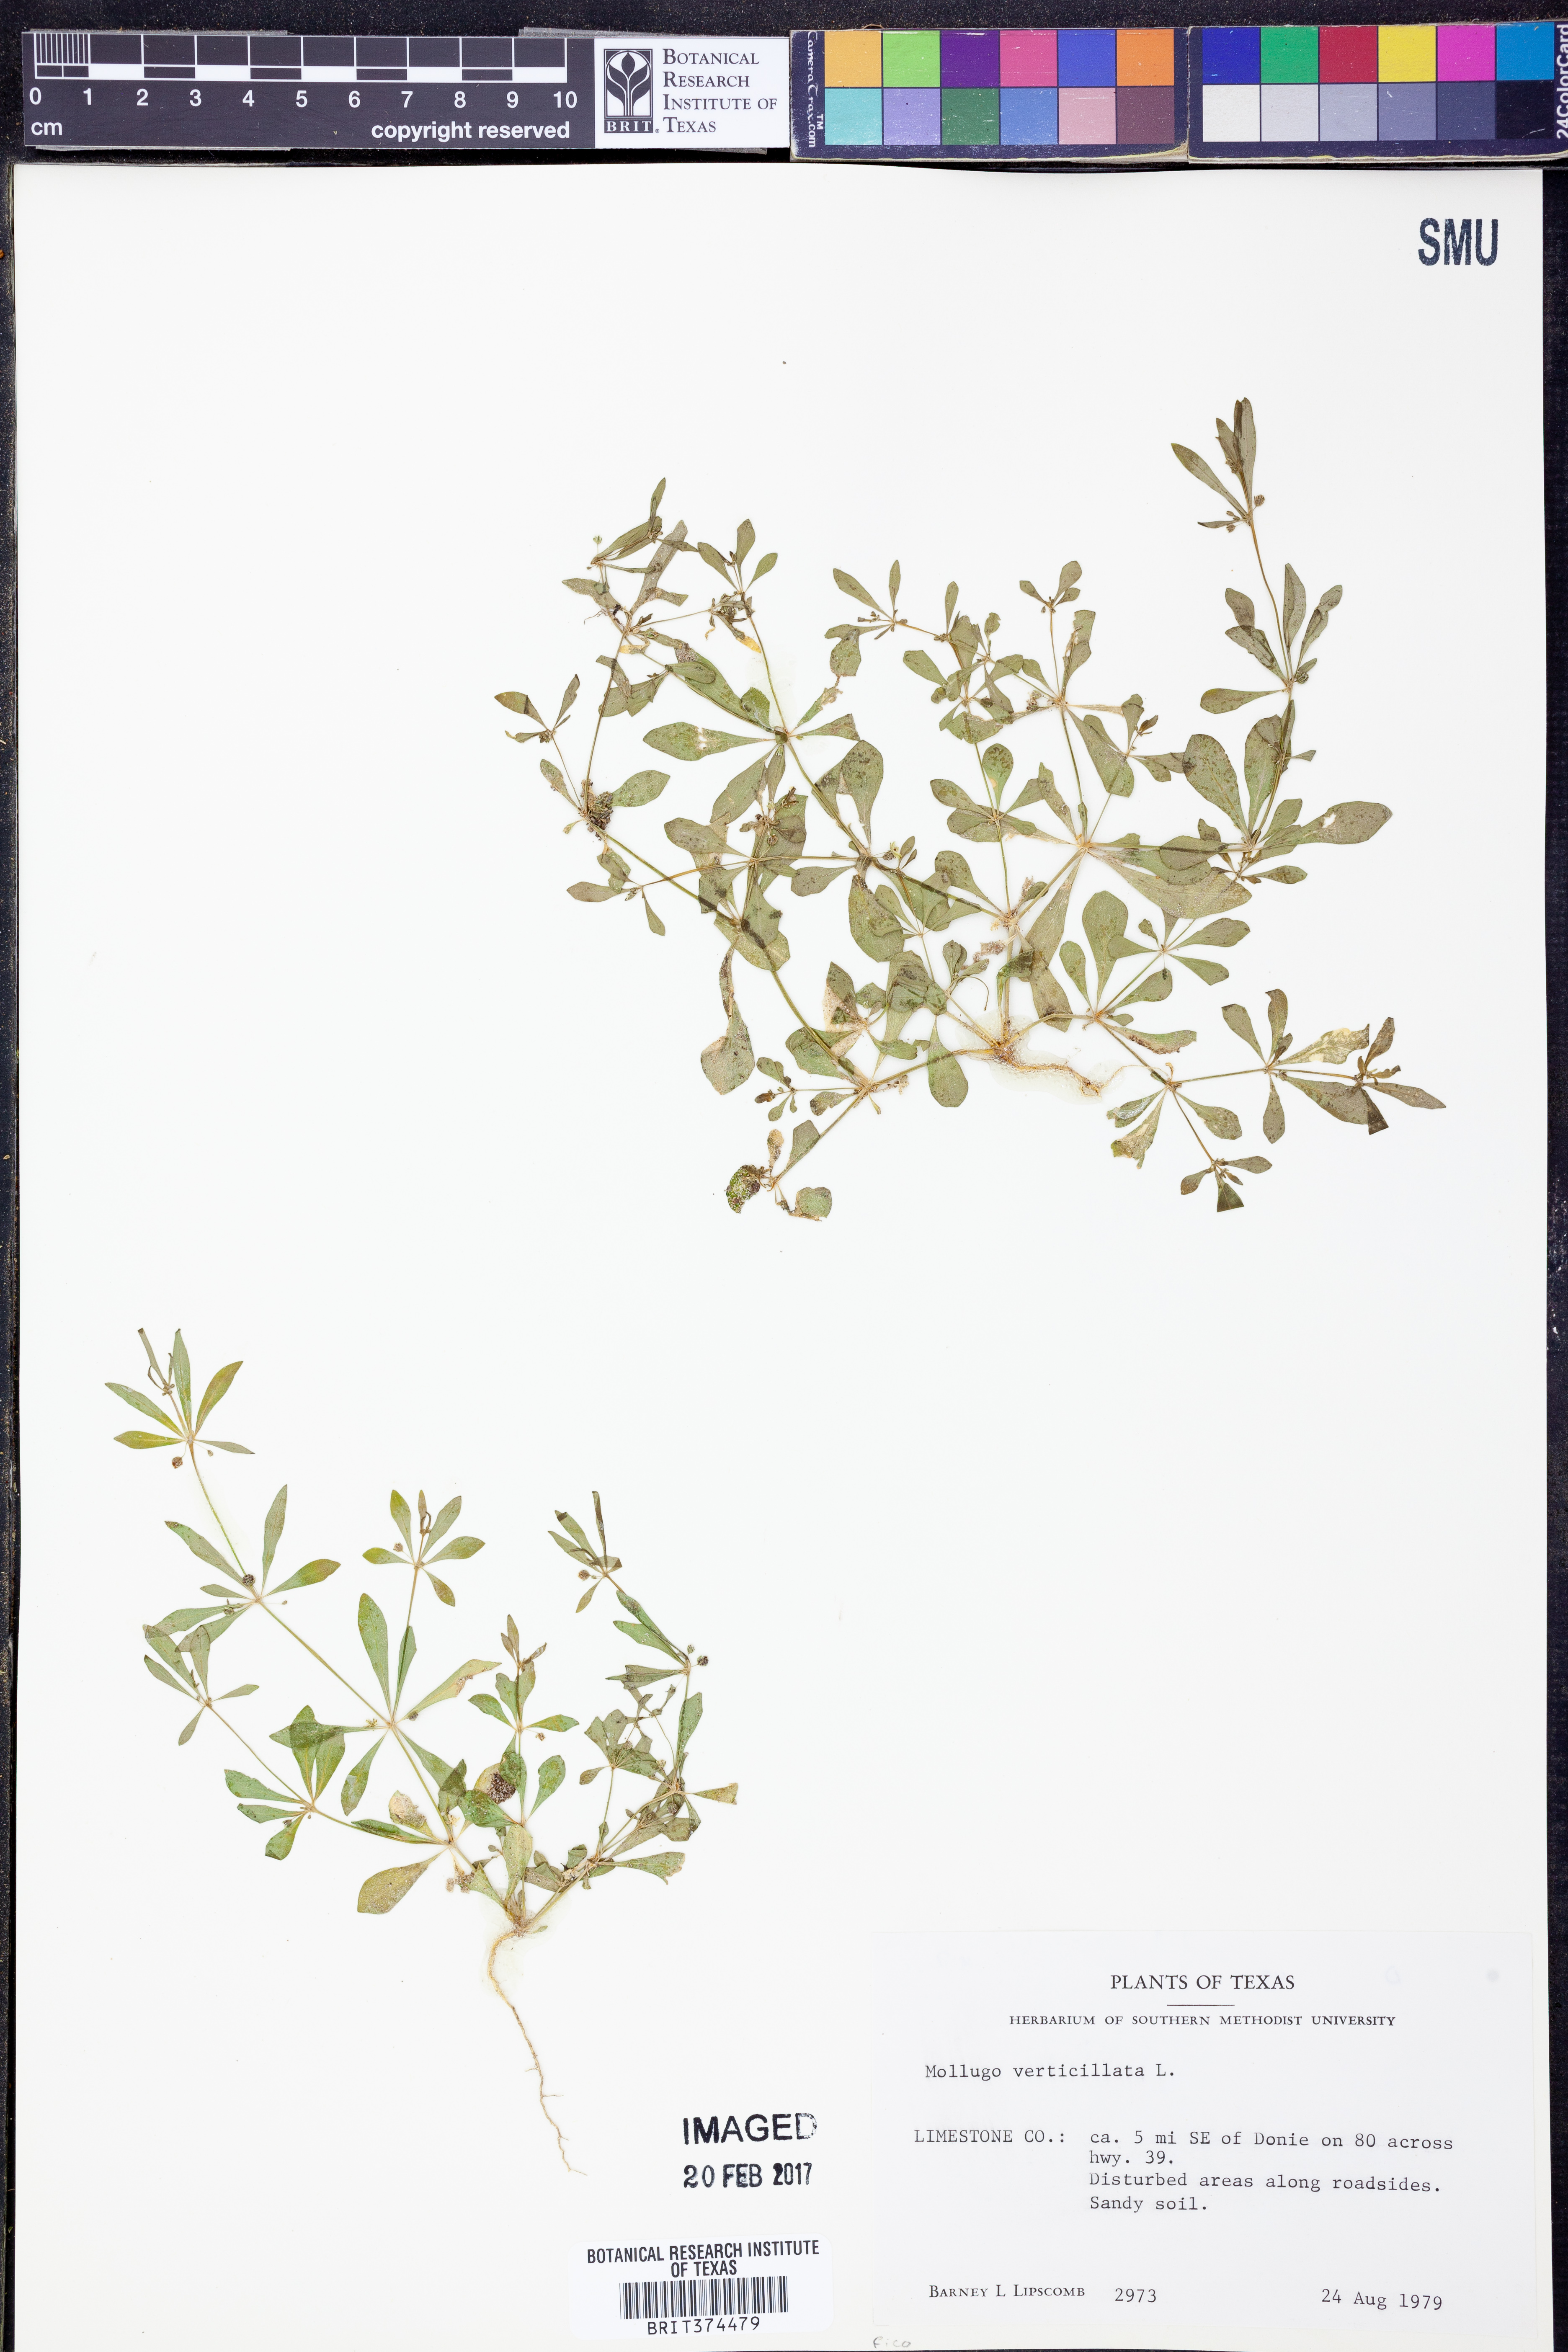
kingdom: Plantae
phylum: Tracheophyta
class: Magnoliopsida
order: Caryophyllales
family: Molluginaceae
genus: Mollugo
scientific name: Mollugo verticillata
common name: Green carpetweed
